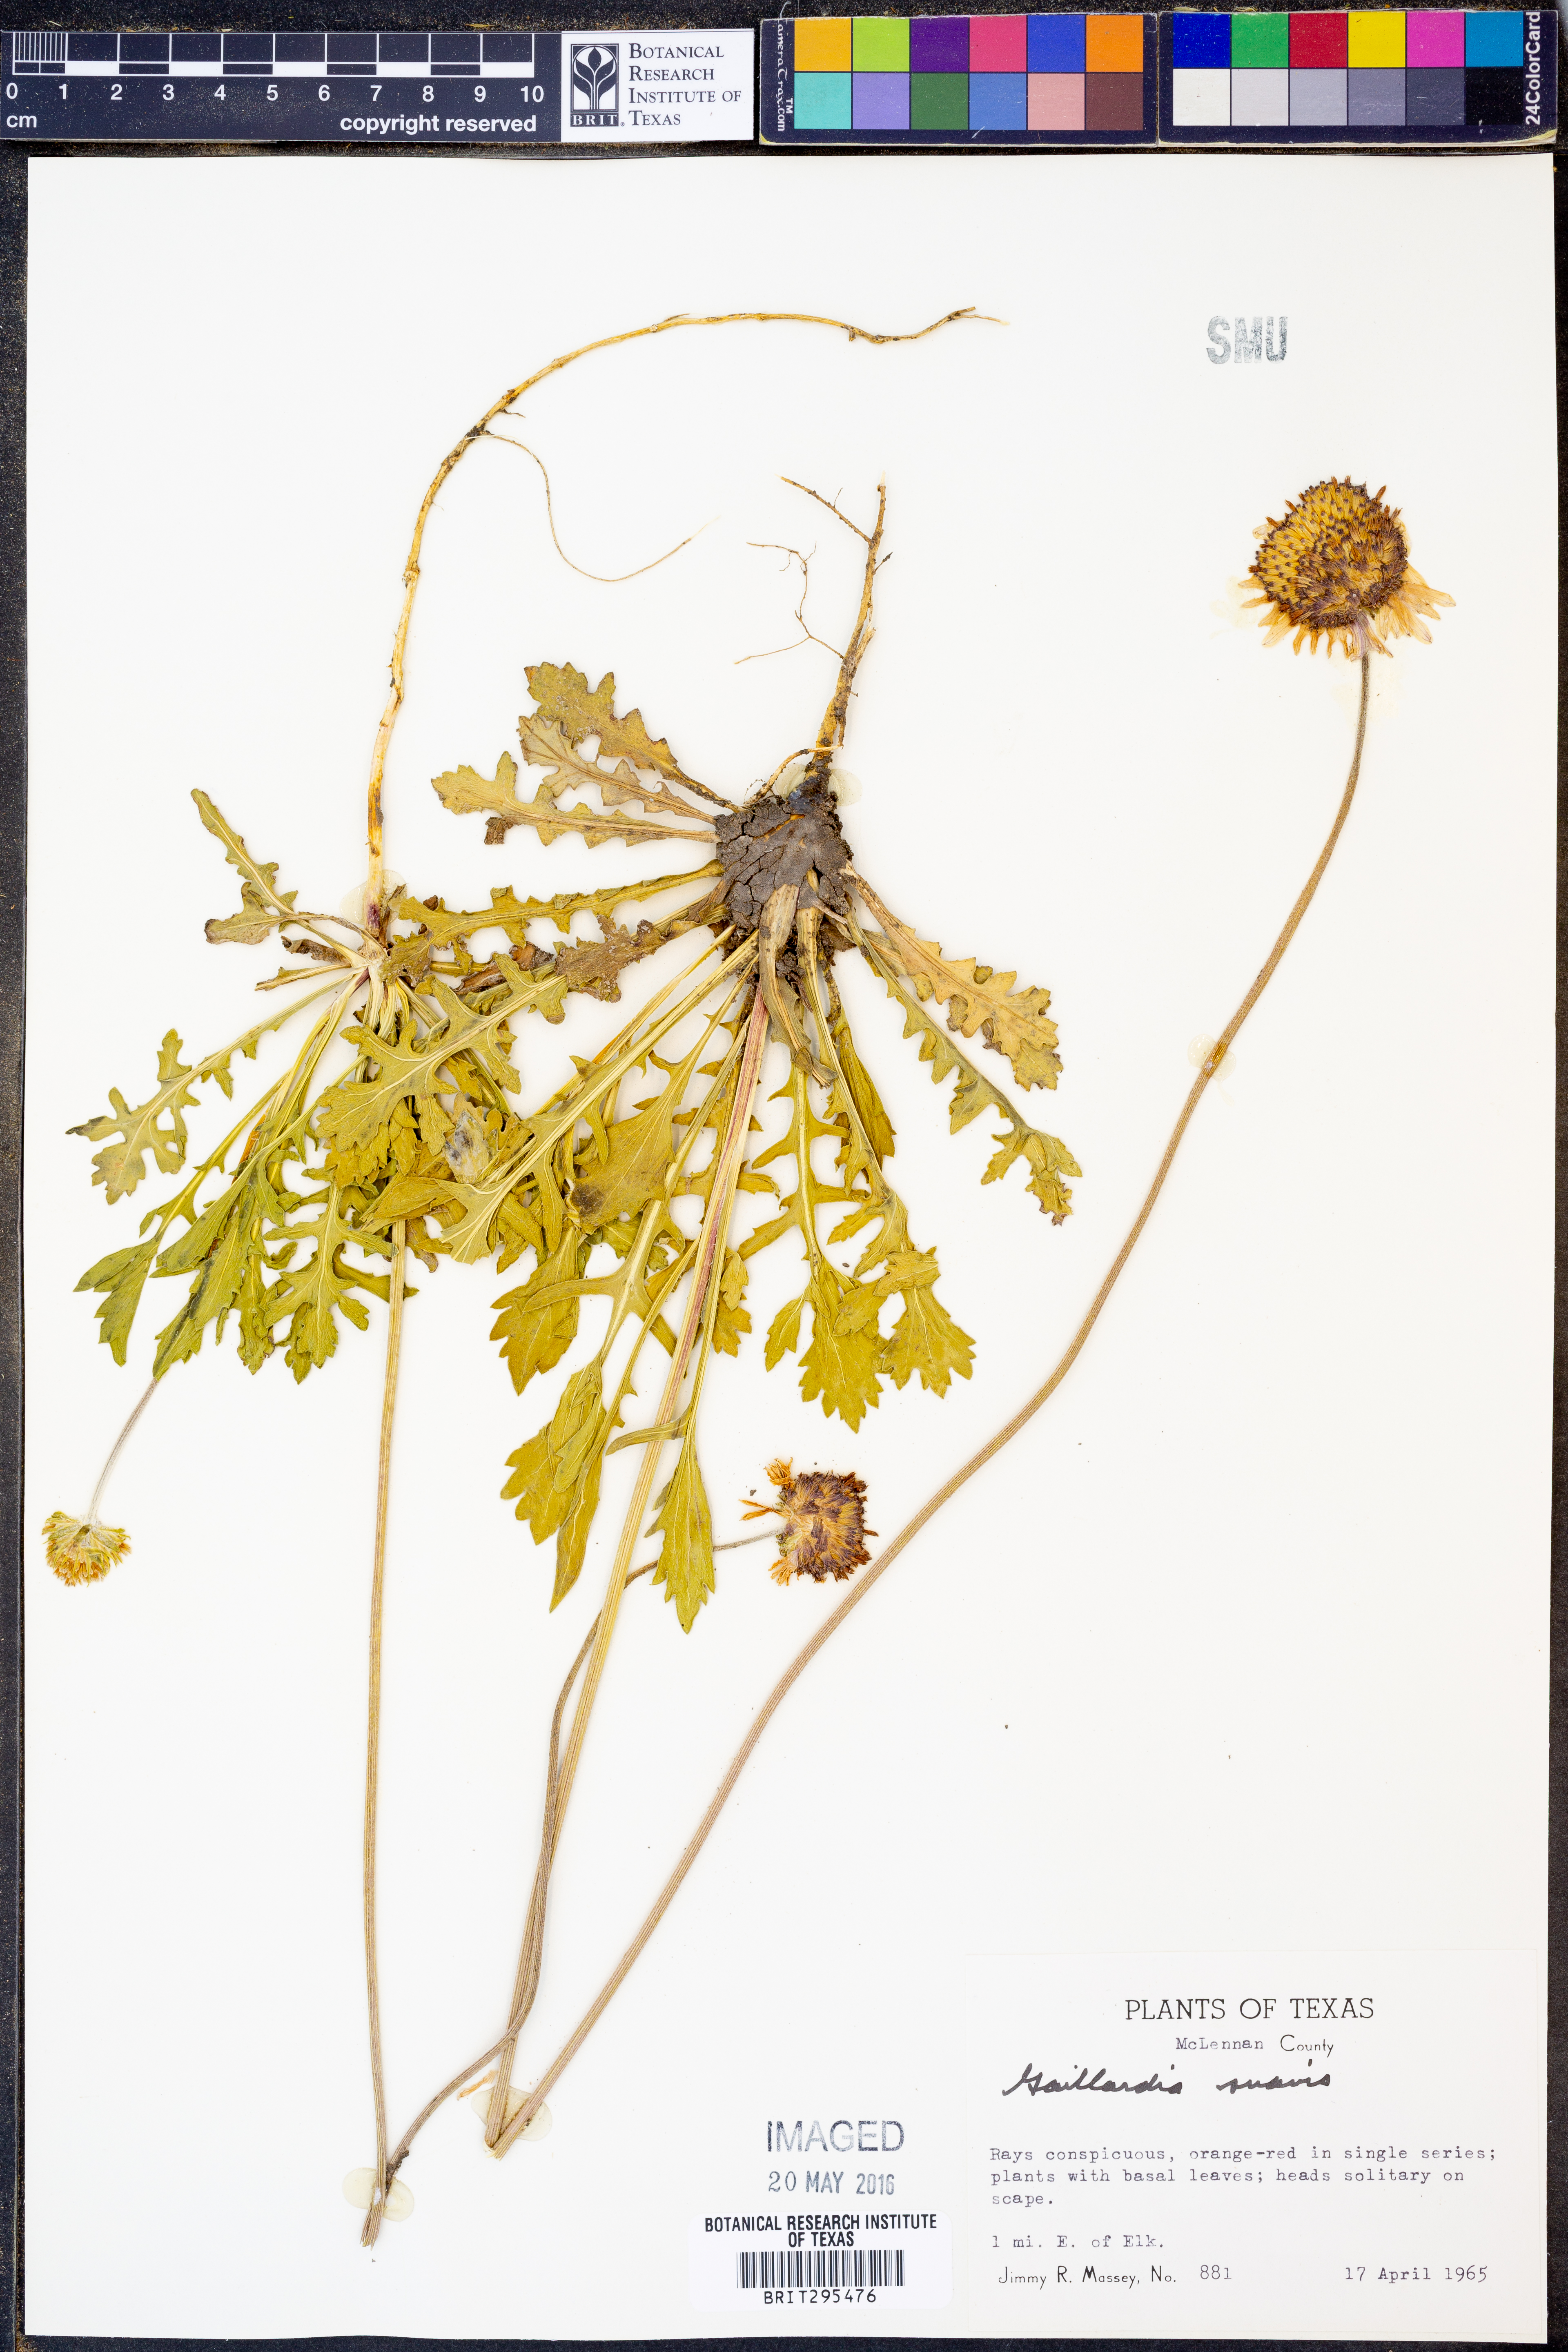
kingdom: Plantae
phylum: Tracheophyta
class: Magnoliopsida
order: Asterales
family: Asteraceae
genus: Gaillardia
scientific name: Gaillardia suavis
